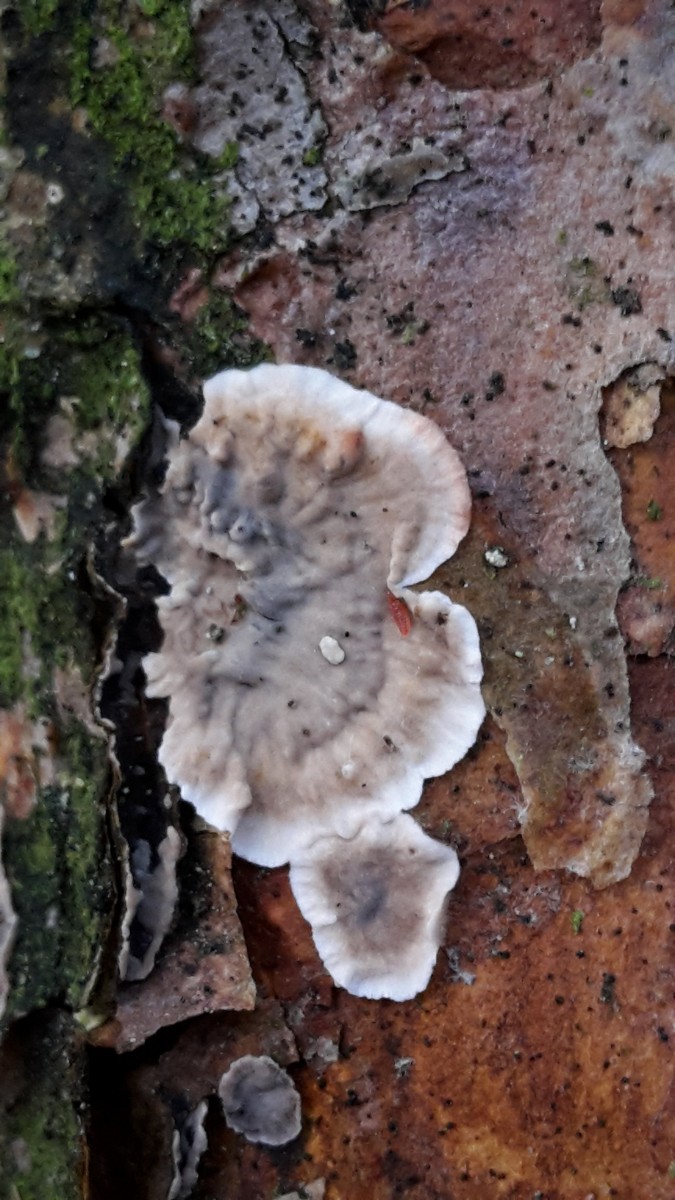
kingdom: Fungi
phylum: Basidiomycota
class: Agaricomycetes
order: Russulales
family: Stereaceae
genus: Stereum
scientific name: Stereum sanguinolentum
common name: blødende lædersvamp
